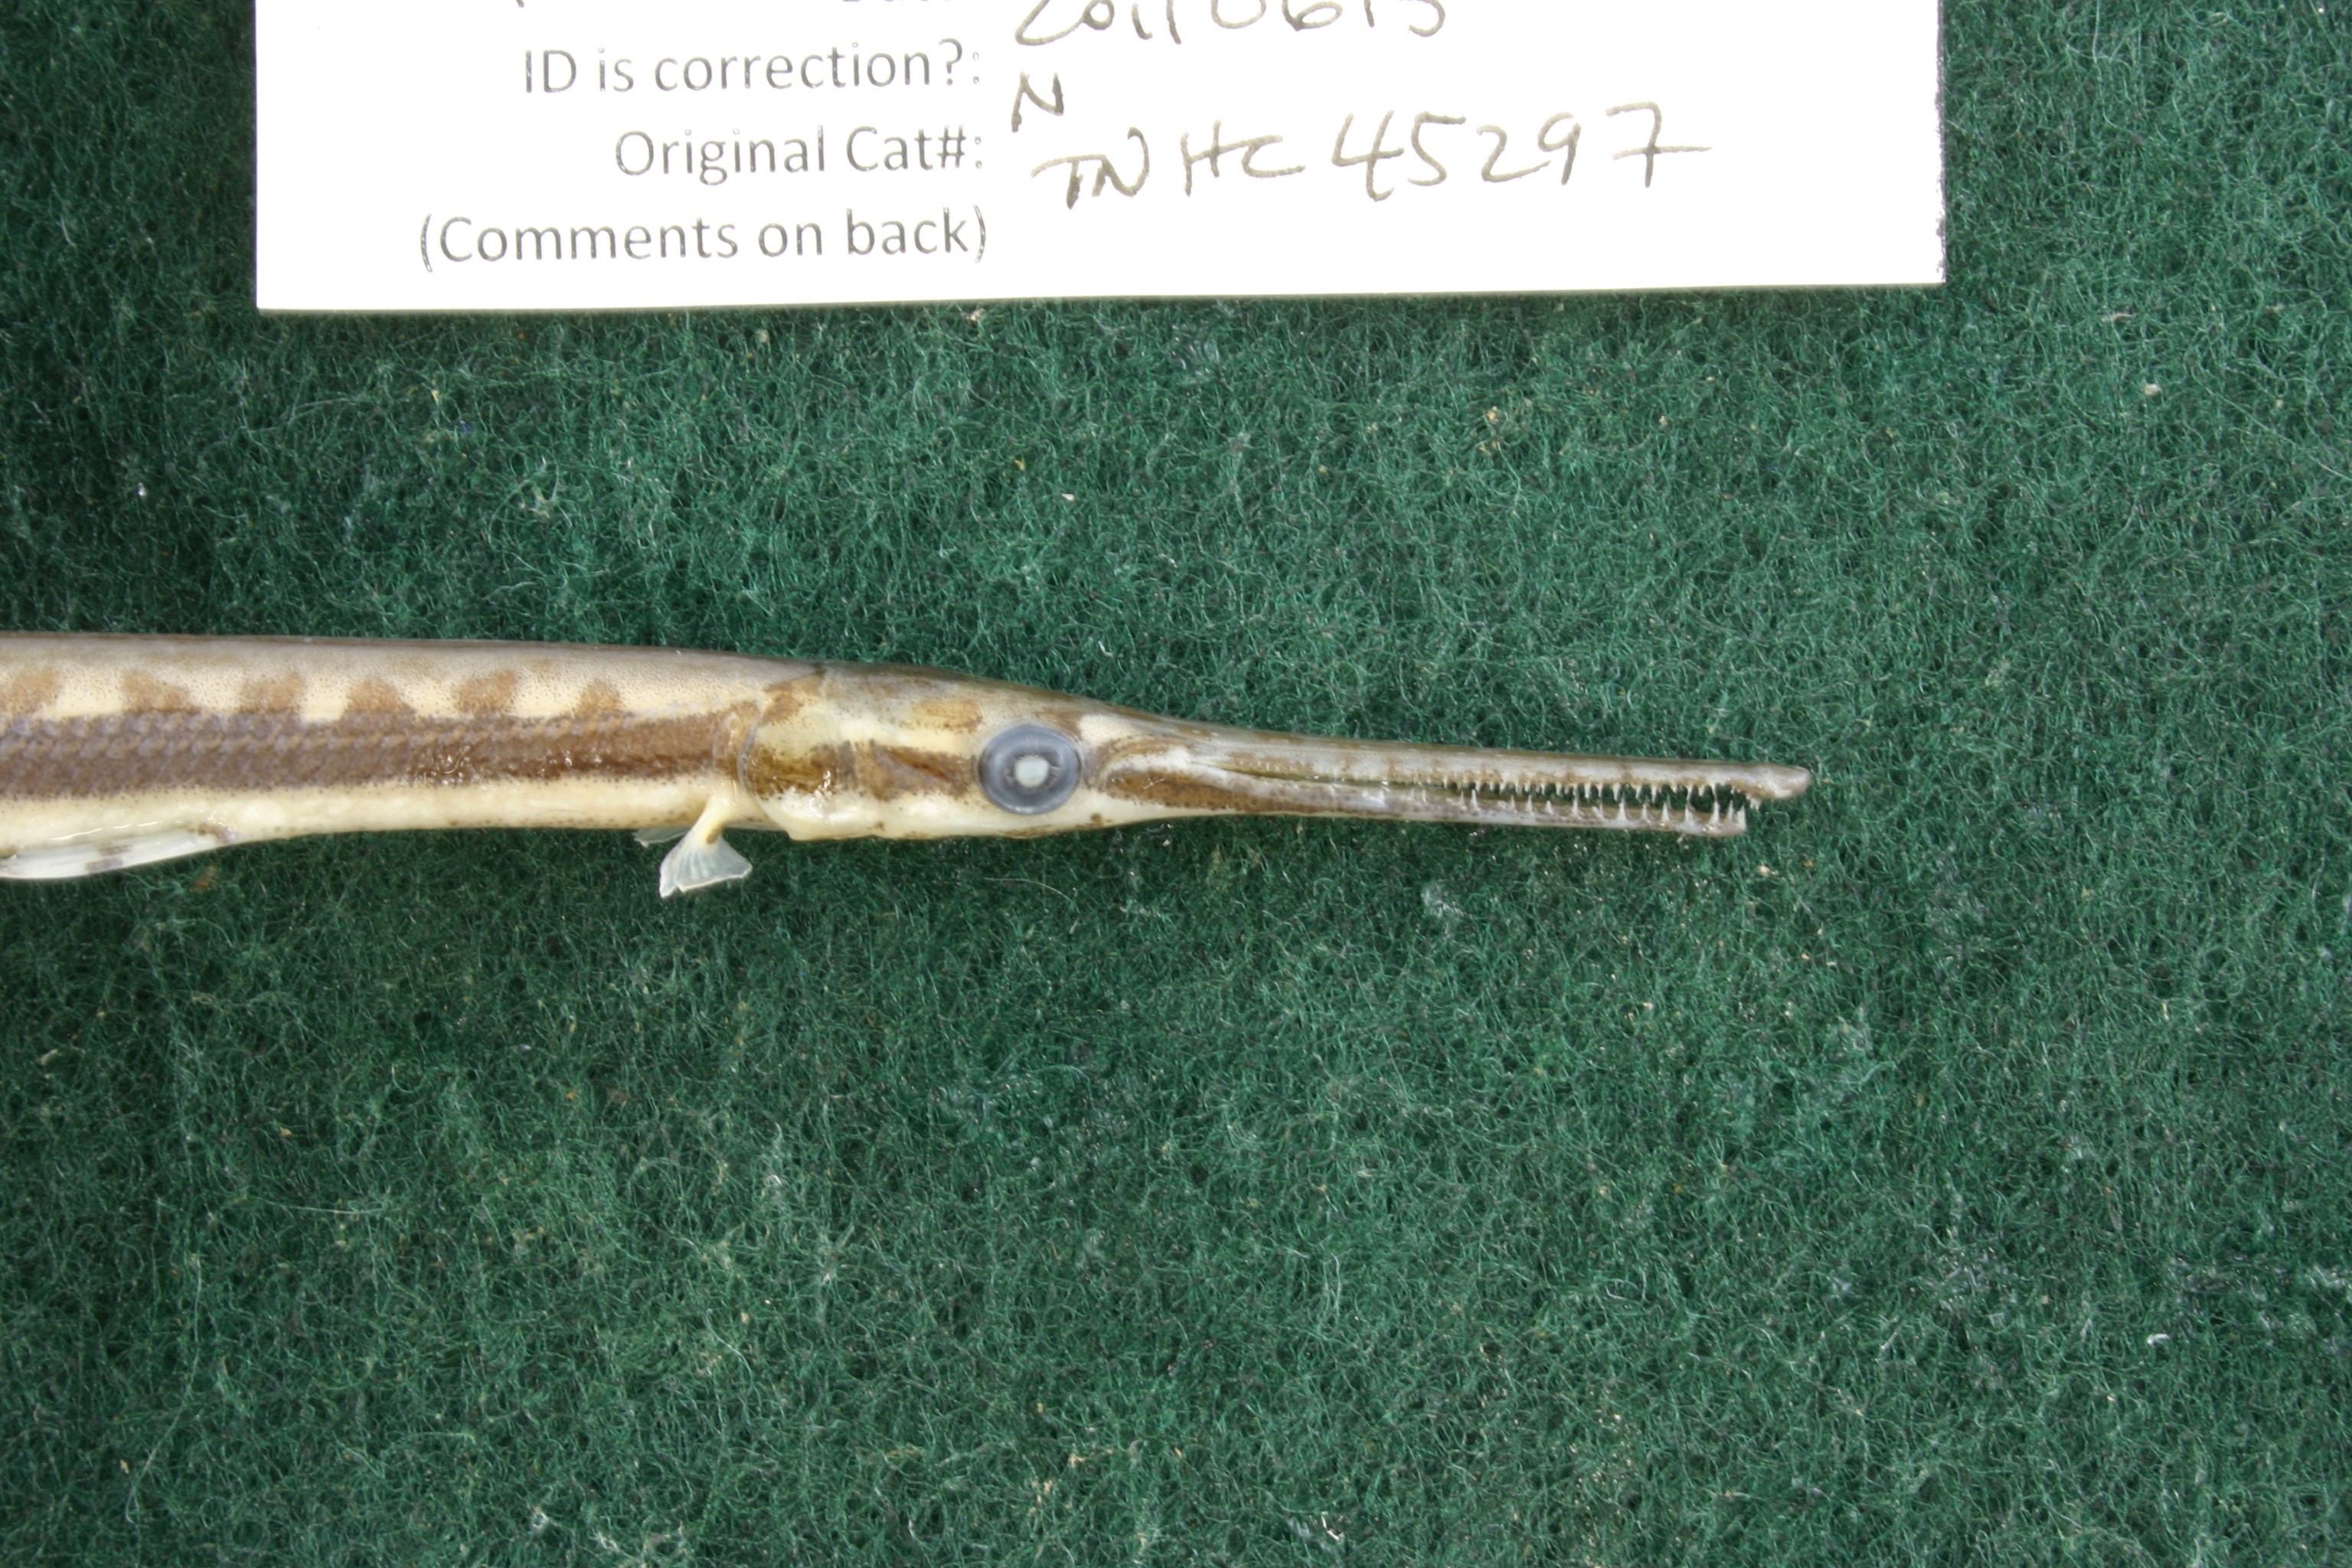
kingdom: Animalia
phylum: Chordata
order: Lepisosteiformes
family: Lepisosteidae
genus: Lepisosteus
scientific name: Lepisosteus osseus
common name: Longnose gar
